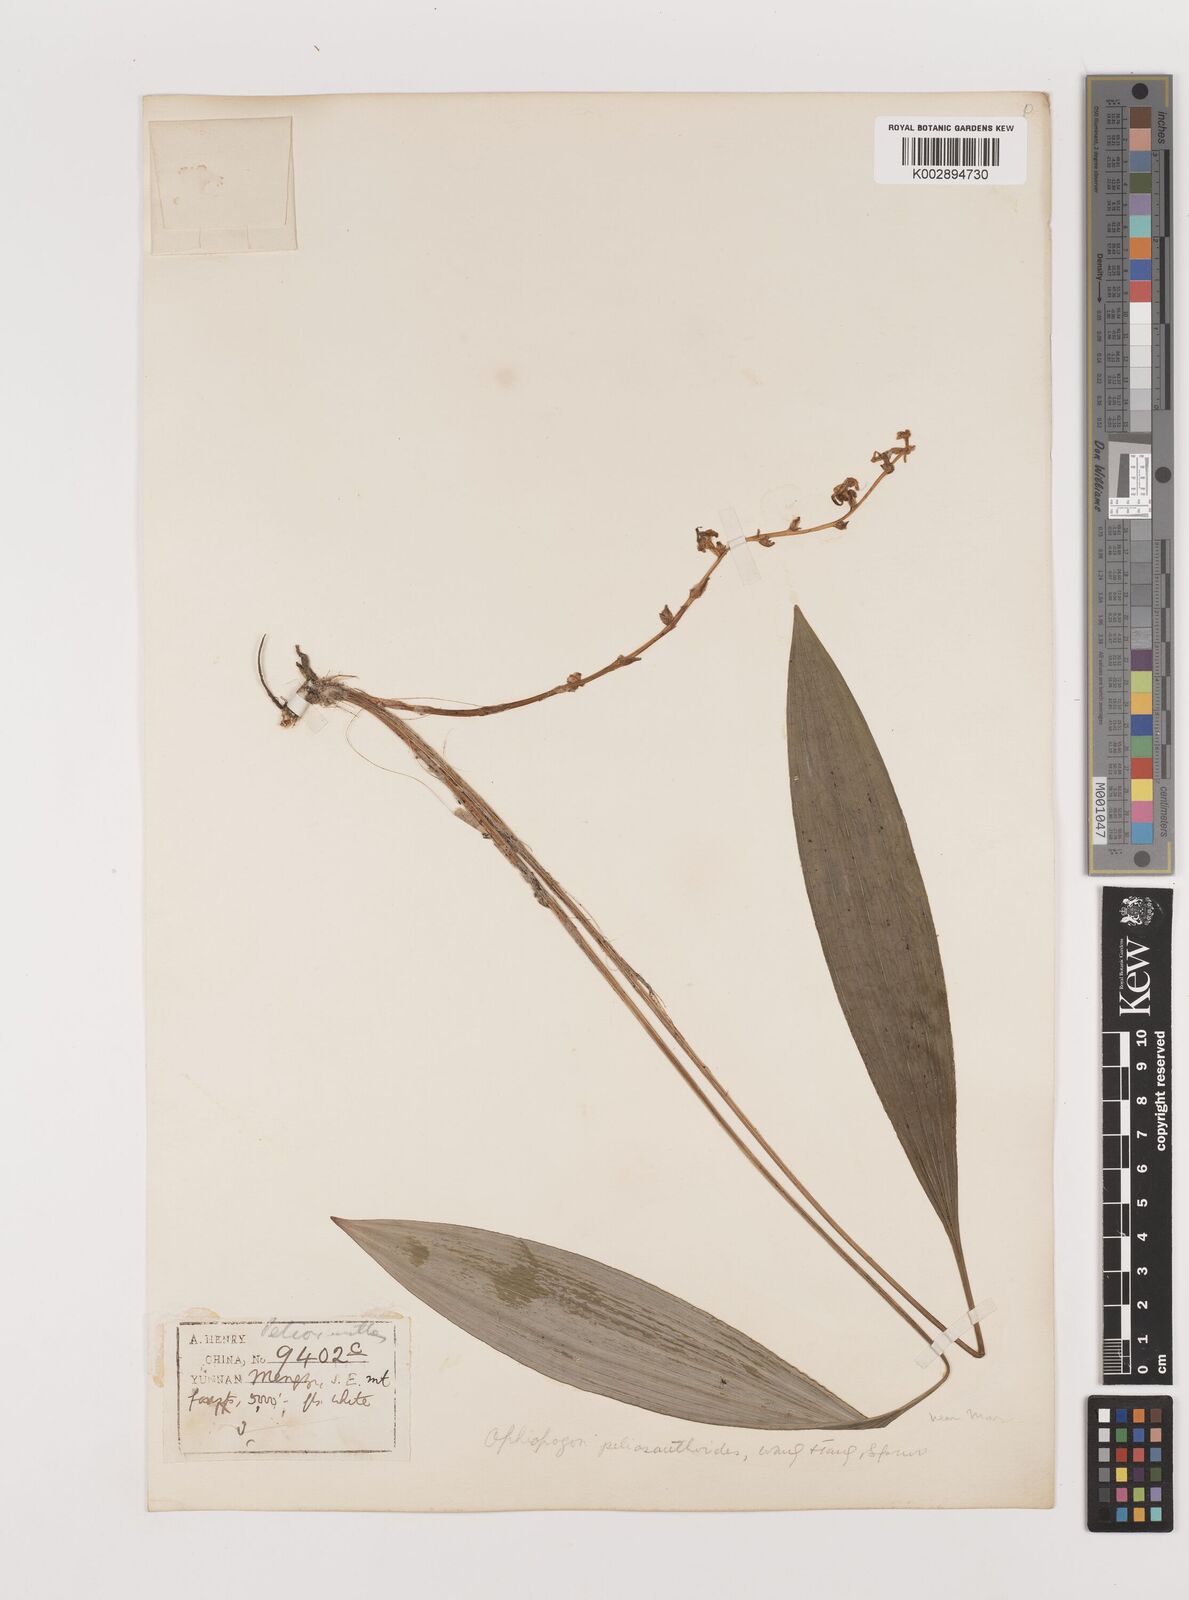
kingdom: Plantae
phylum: Tracheophyta
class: Liliopsida
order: Asparagales
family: Asparagaceae
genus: Ophiopogon
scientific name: Ophiopogon peliosanthoides
